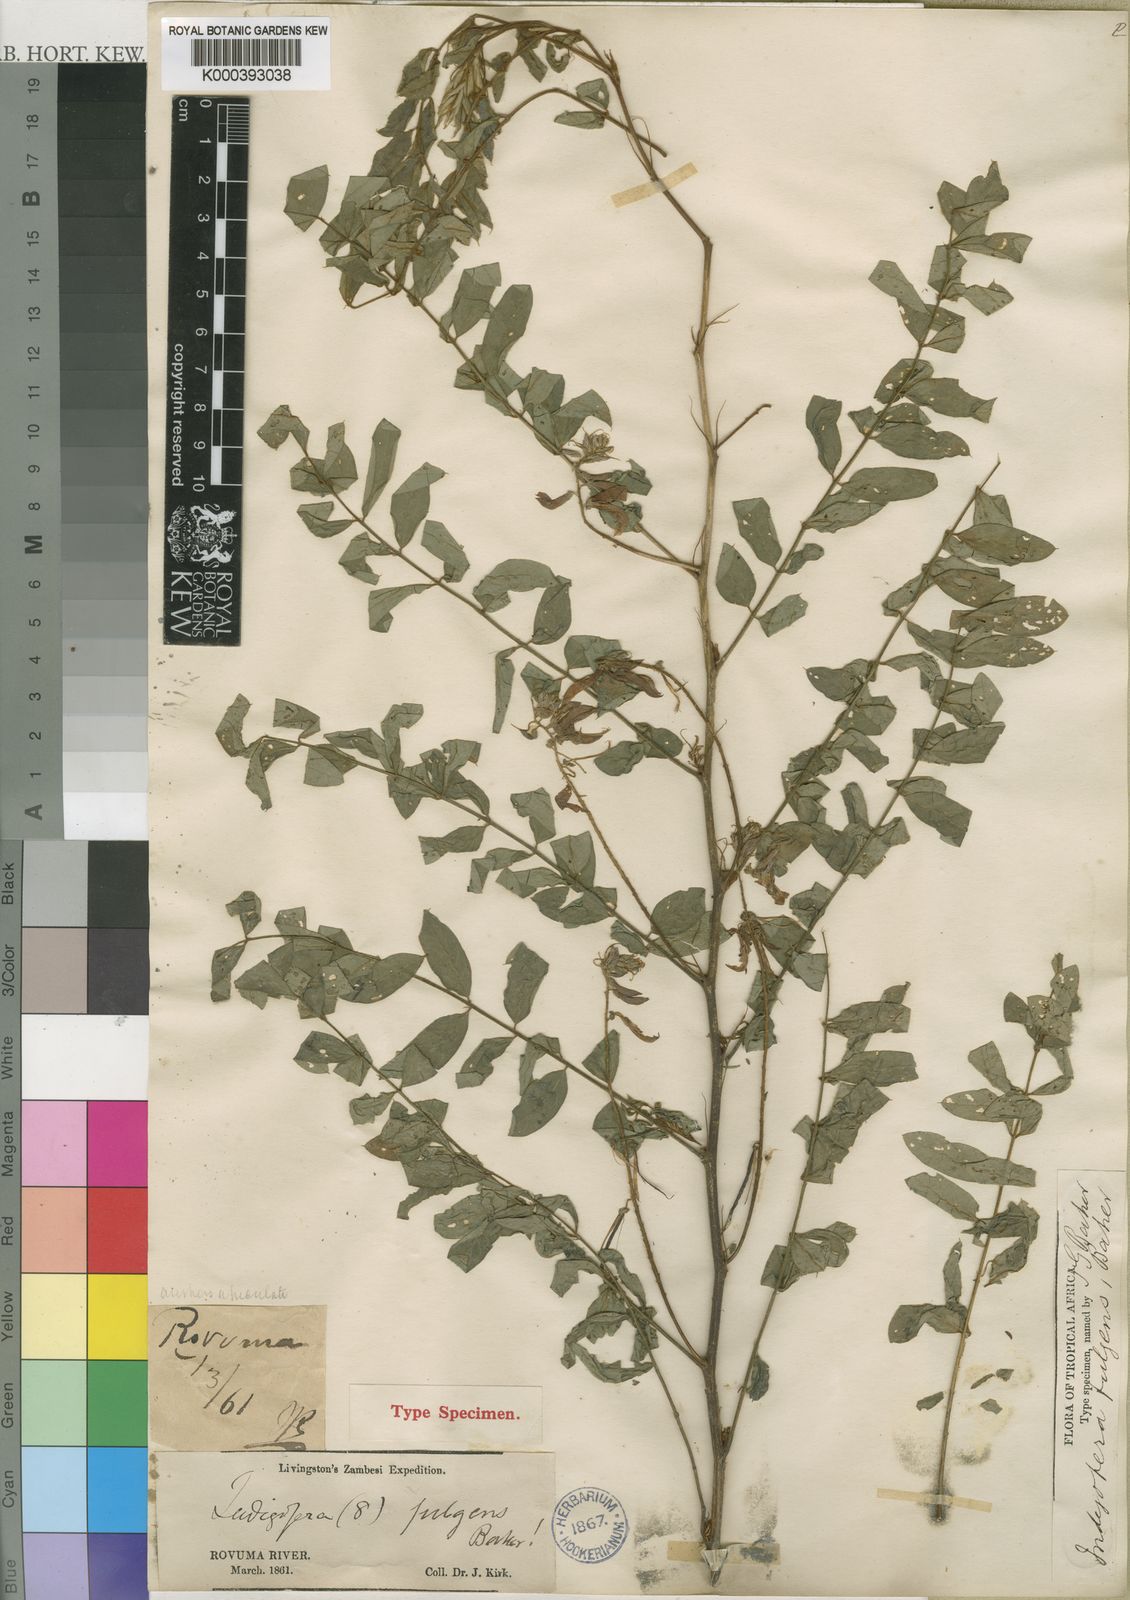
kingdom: Plantae
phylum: Tracheophyta
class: Magnoliopsida
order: Fabales
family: Fabaceae
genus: Indigofera
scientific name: Indigofera fulgens
